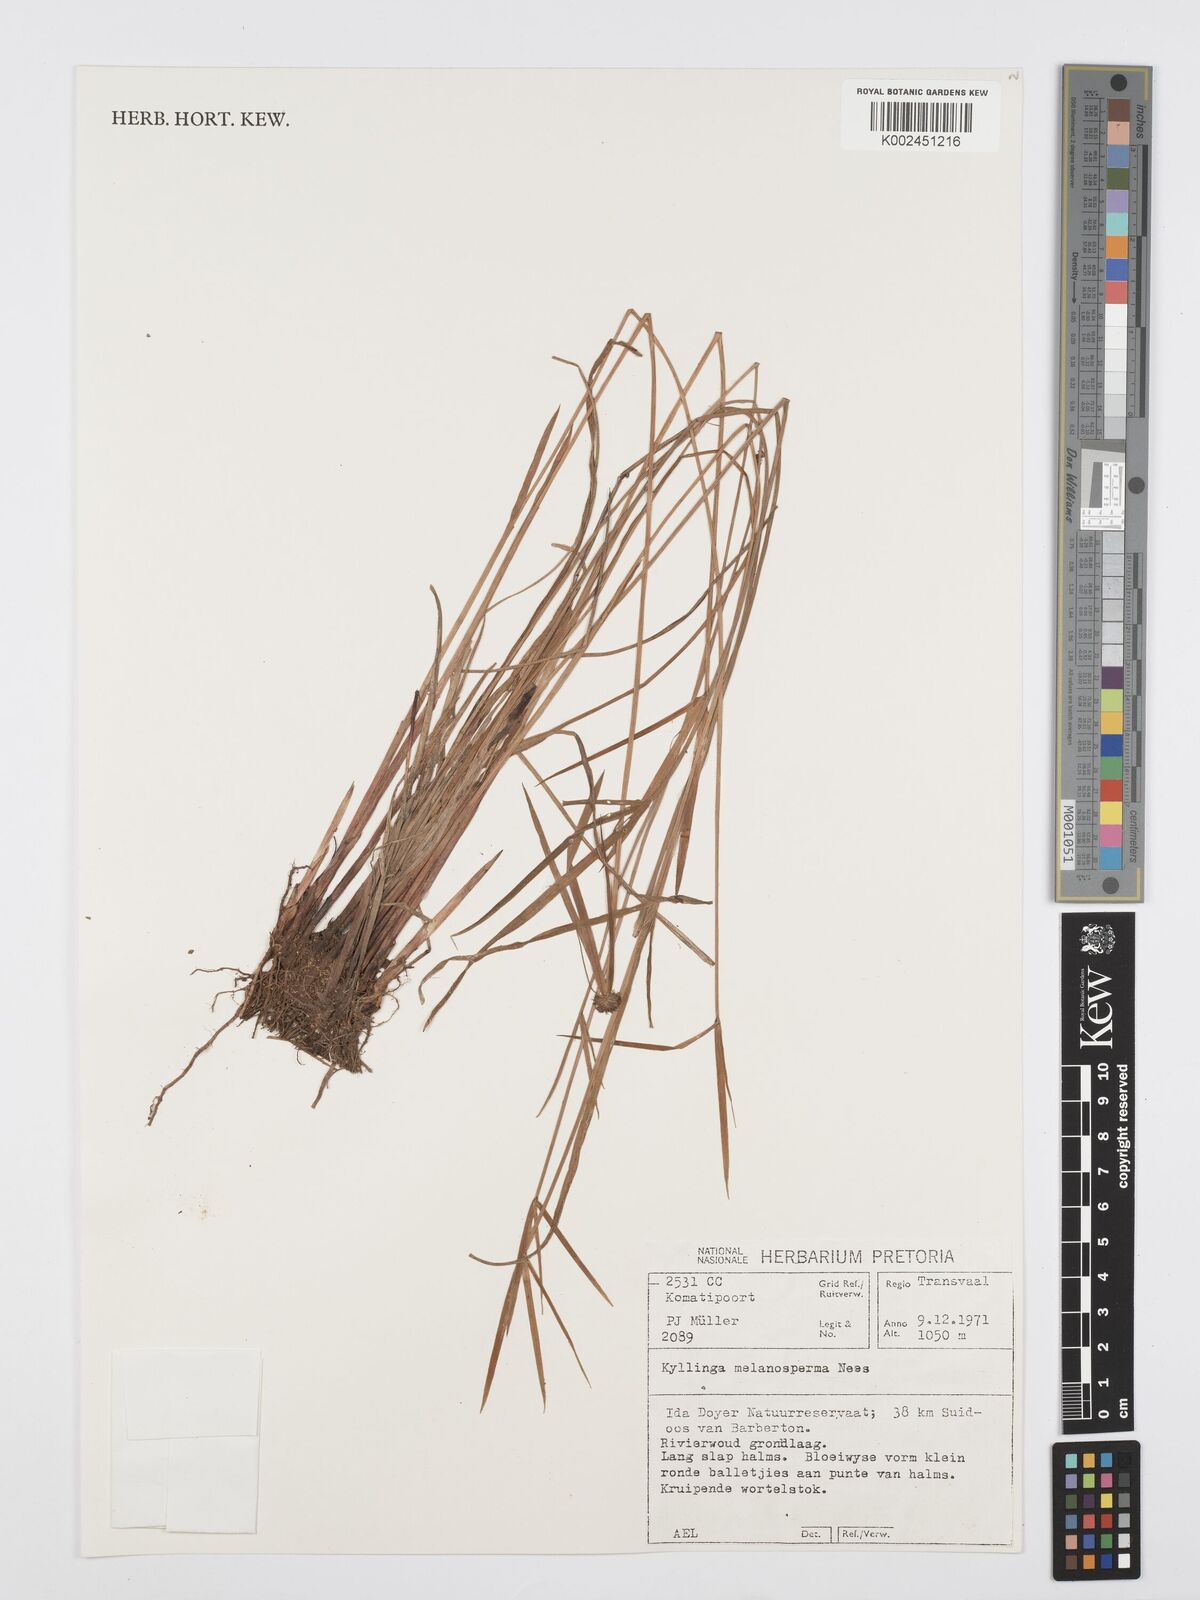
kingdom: Plantae
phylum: Tracheophyta
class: Liliopsida
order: Poales
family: Cyperaceae
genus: Cyperus
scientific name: Cyperus melanospermus
